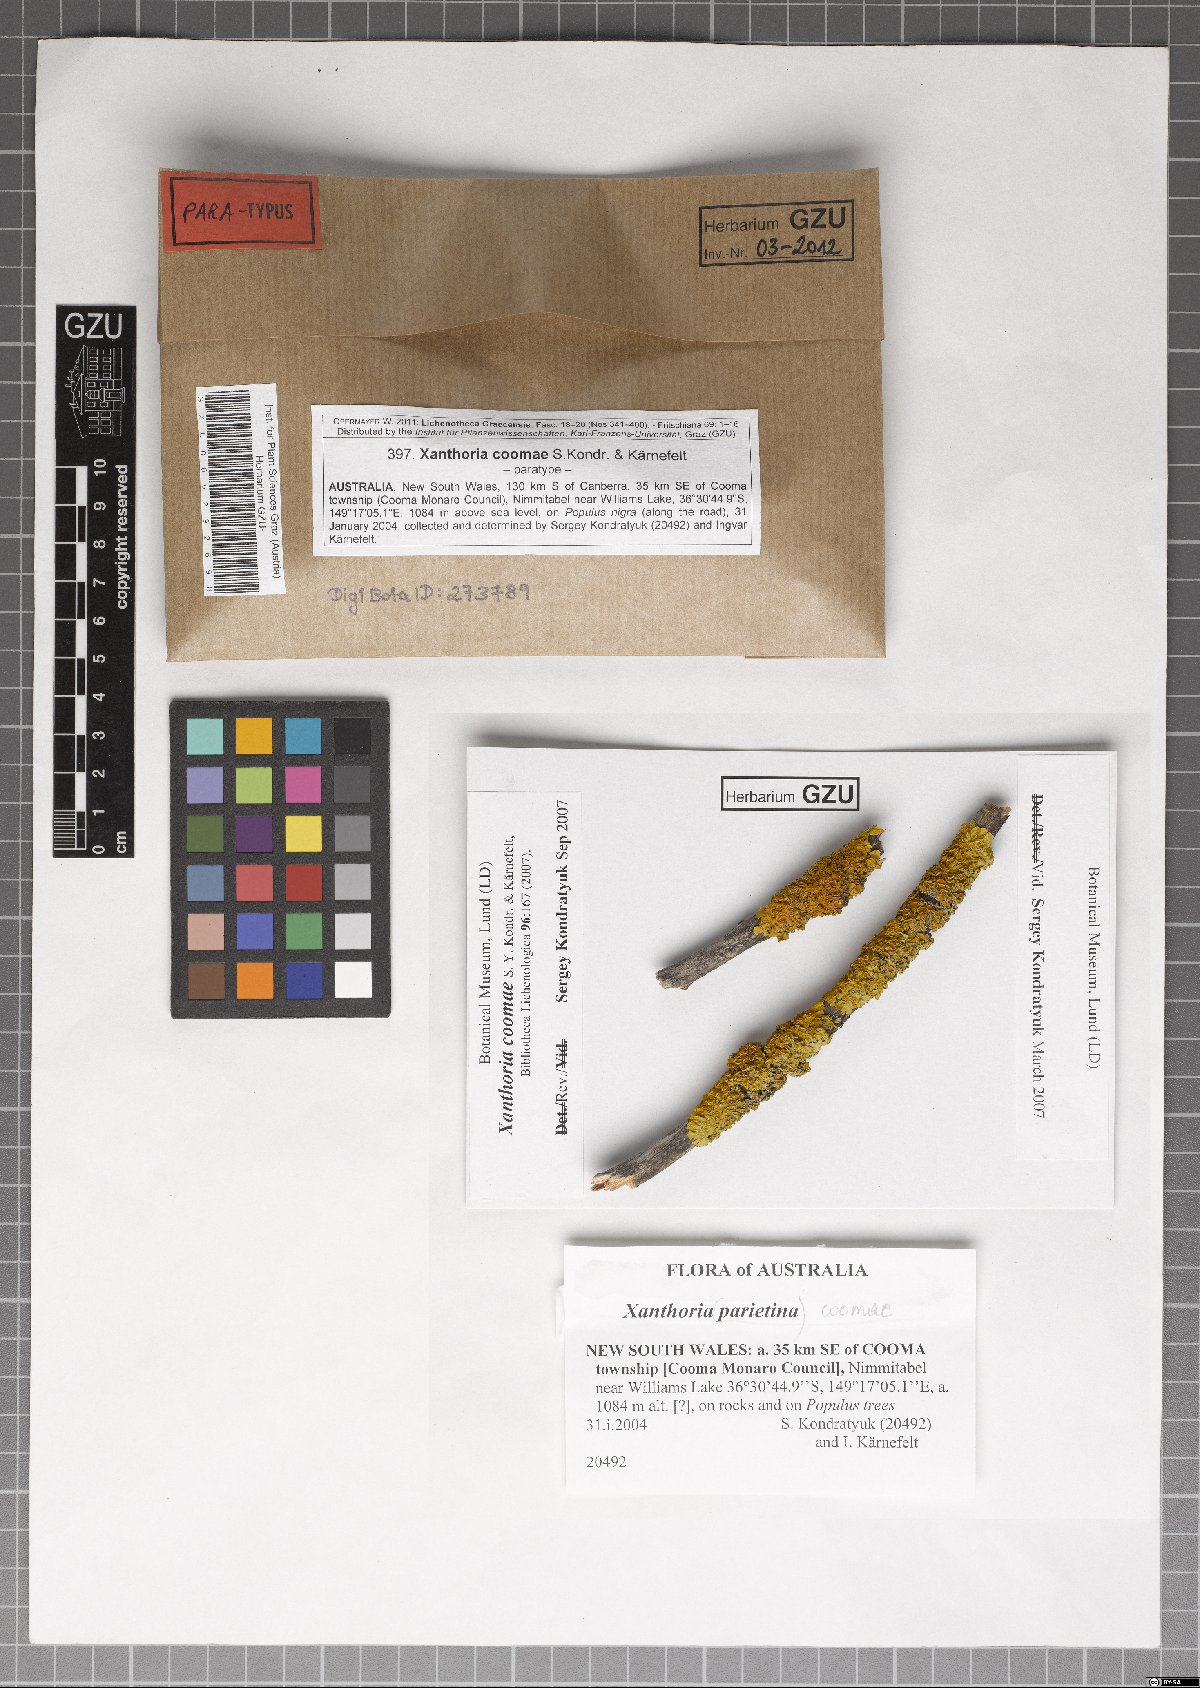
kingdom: Fungi
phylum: Ascomycota
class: Lecanoromycetes
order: Teloschistales
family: Teloschistaceae
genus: Xanthoria
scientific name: Xanthoria coomae
